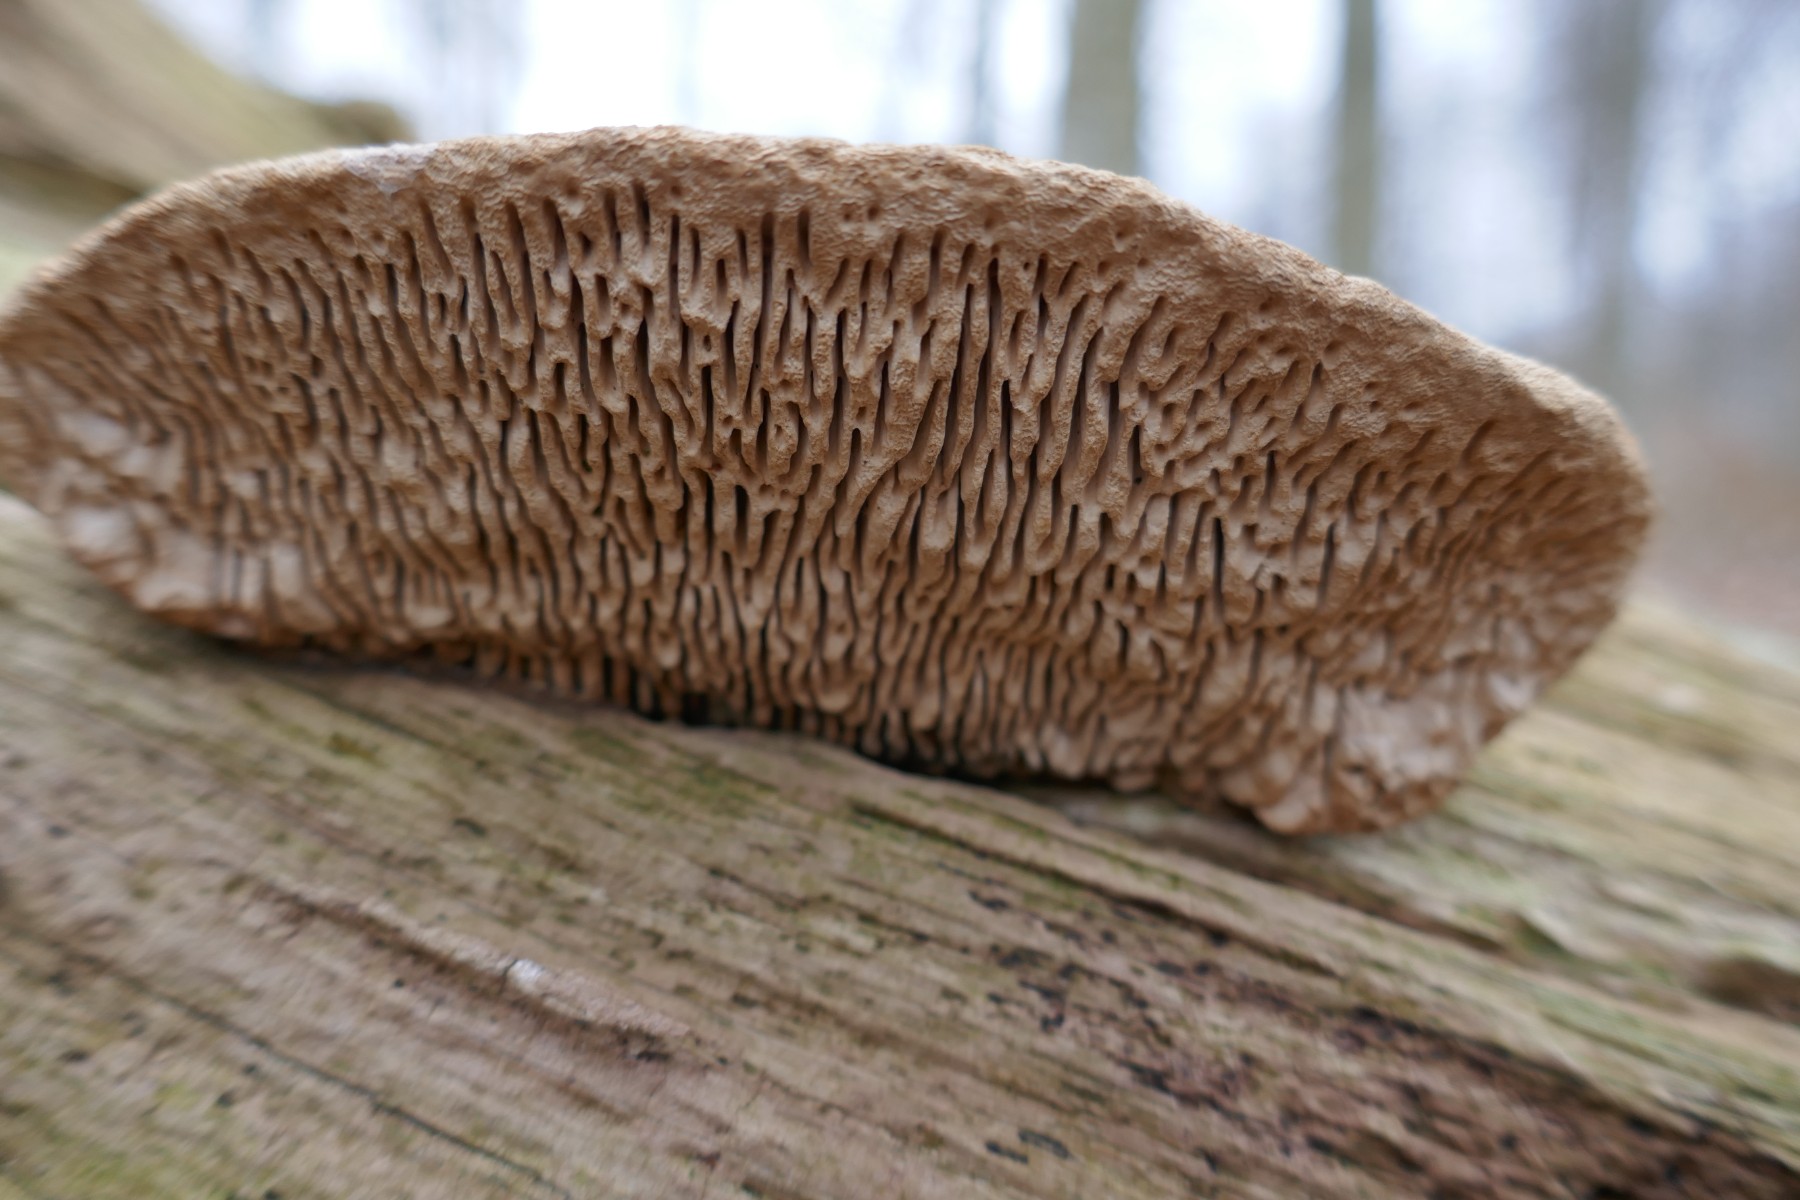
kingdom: Fungi
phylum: Basidiomycota
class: Agaricomycetes
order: Polyporales
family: Fomitopsidaceae
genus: Daedalea
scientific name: Daedalea quercina
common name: ege-labyrintsvamp
